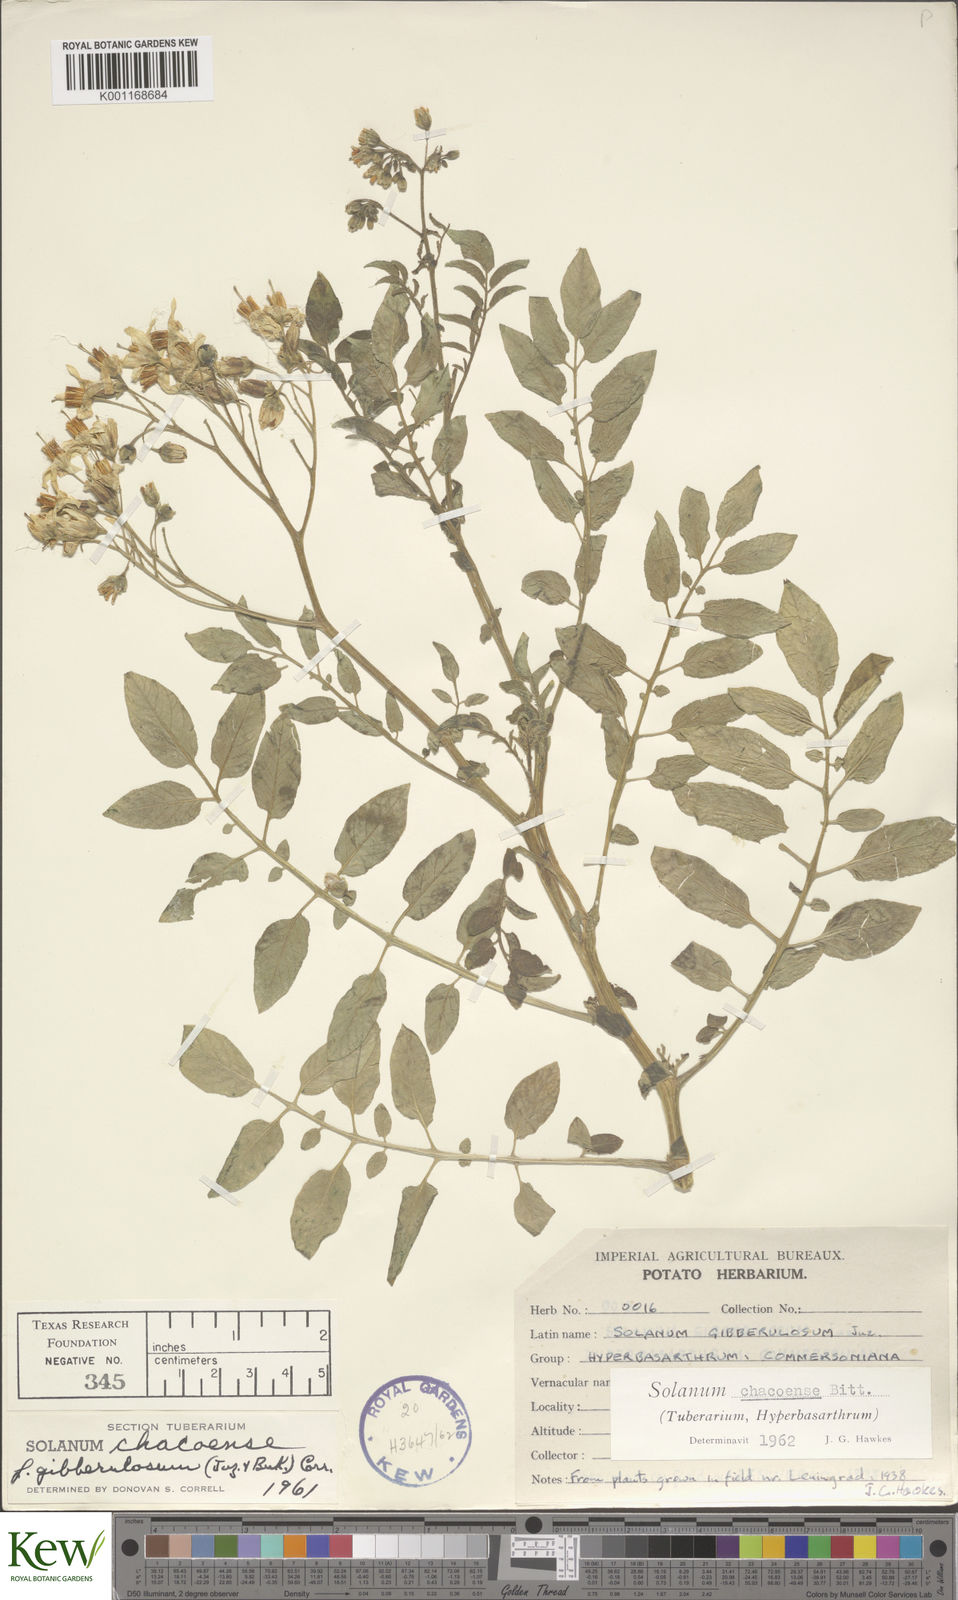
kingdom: Plantae
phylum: Tracheophyta
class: Magnoliopsida
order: Solanales
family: Solanaceae
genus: Solanum
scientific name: Solanum chacoense
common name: Chaco potato
